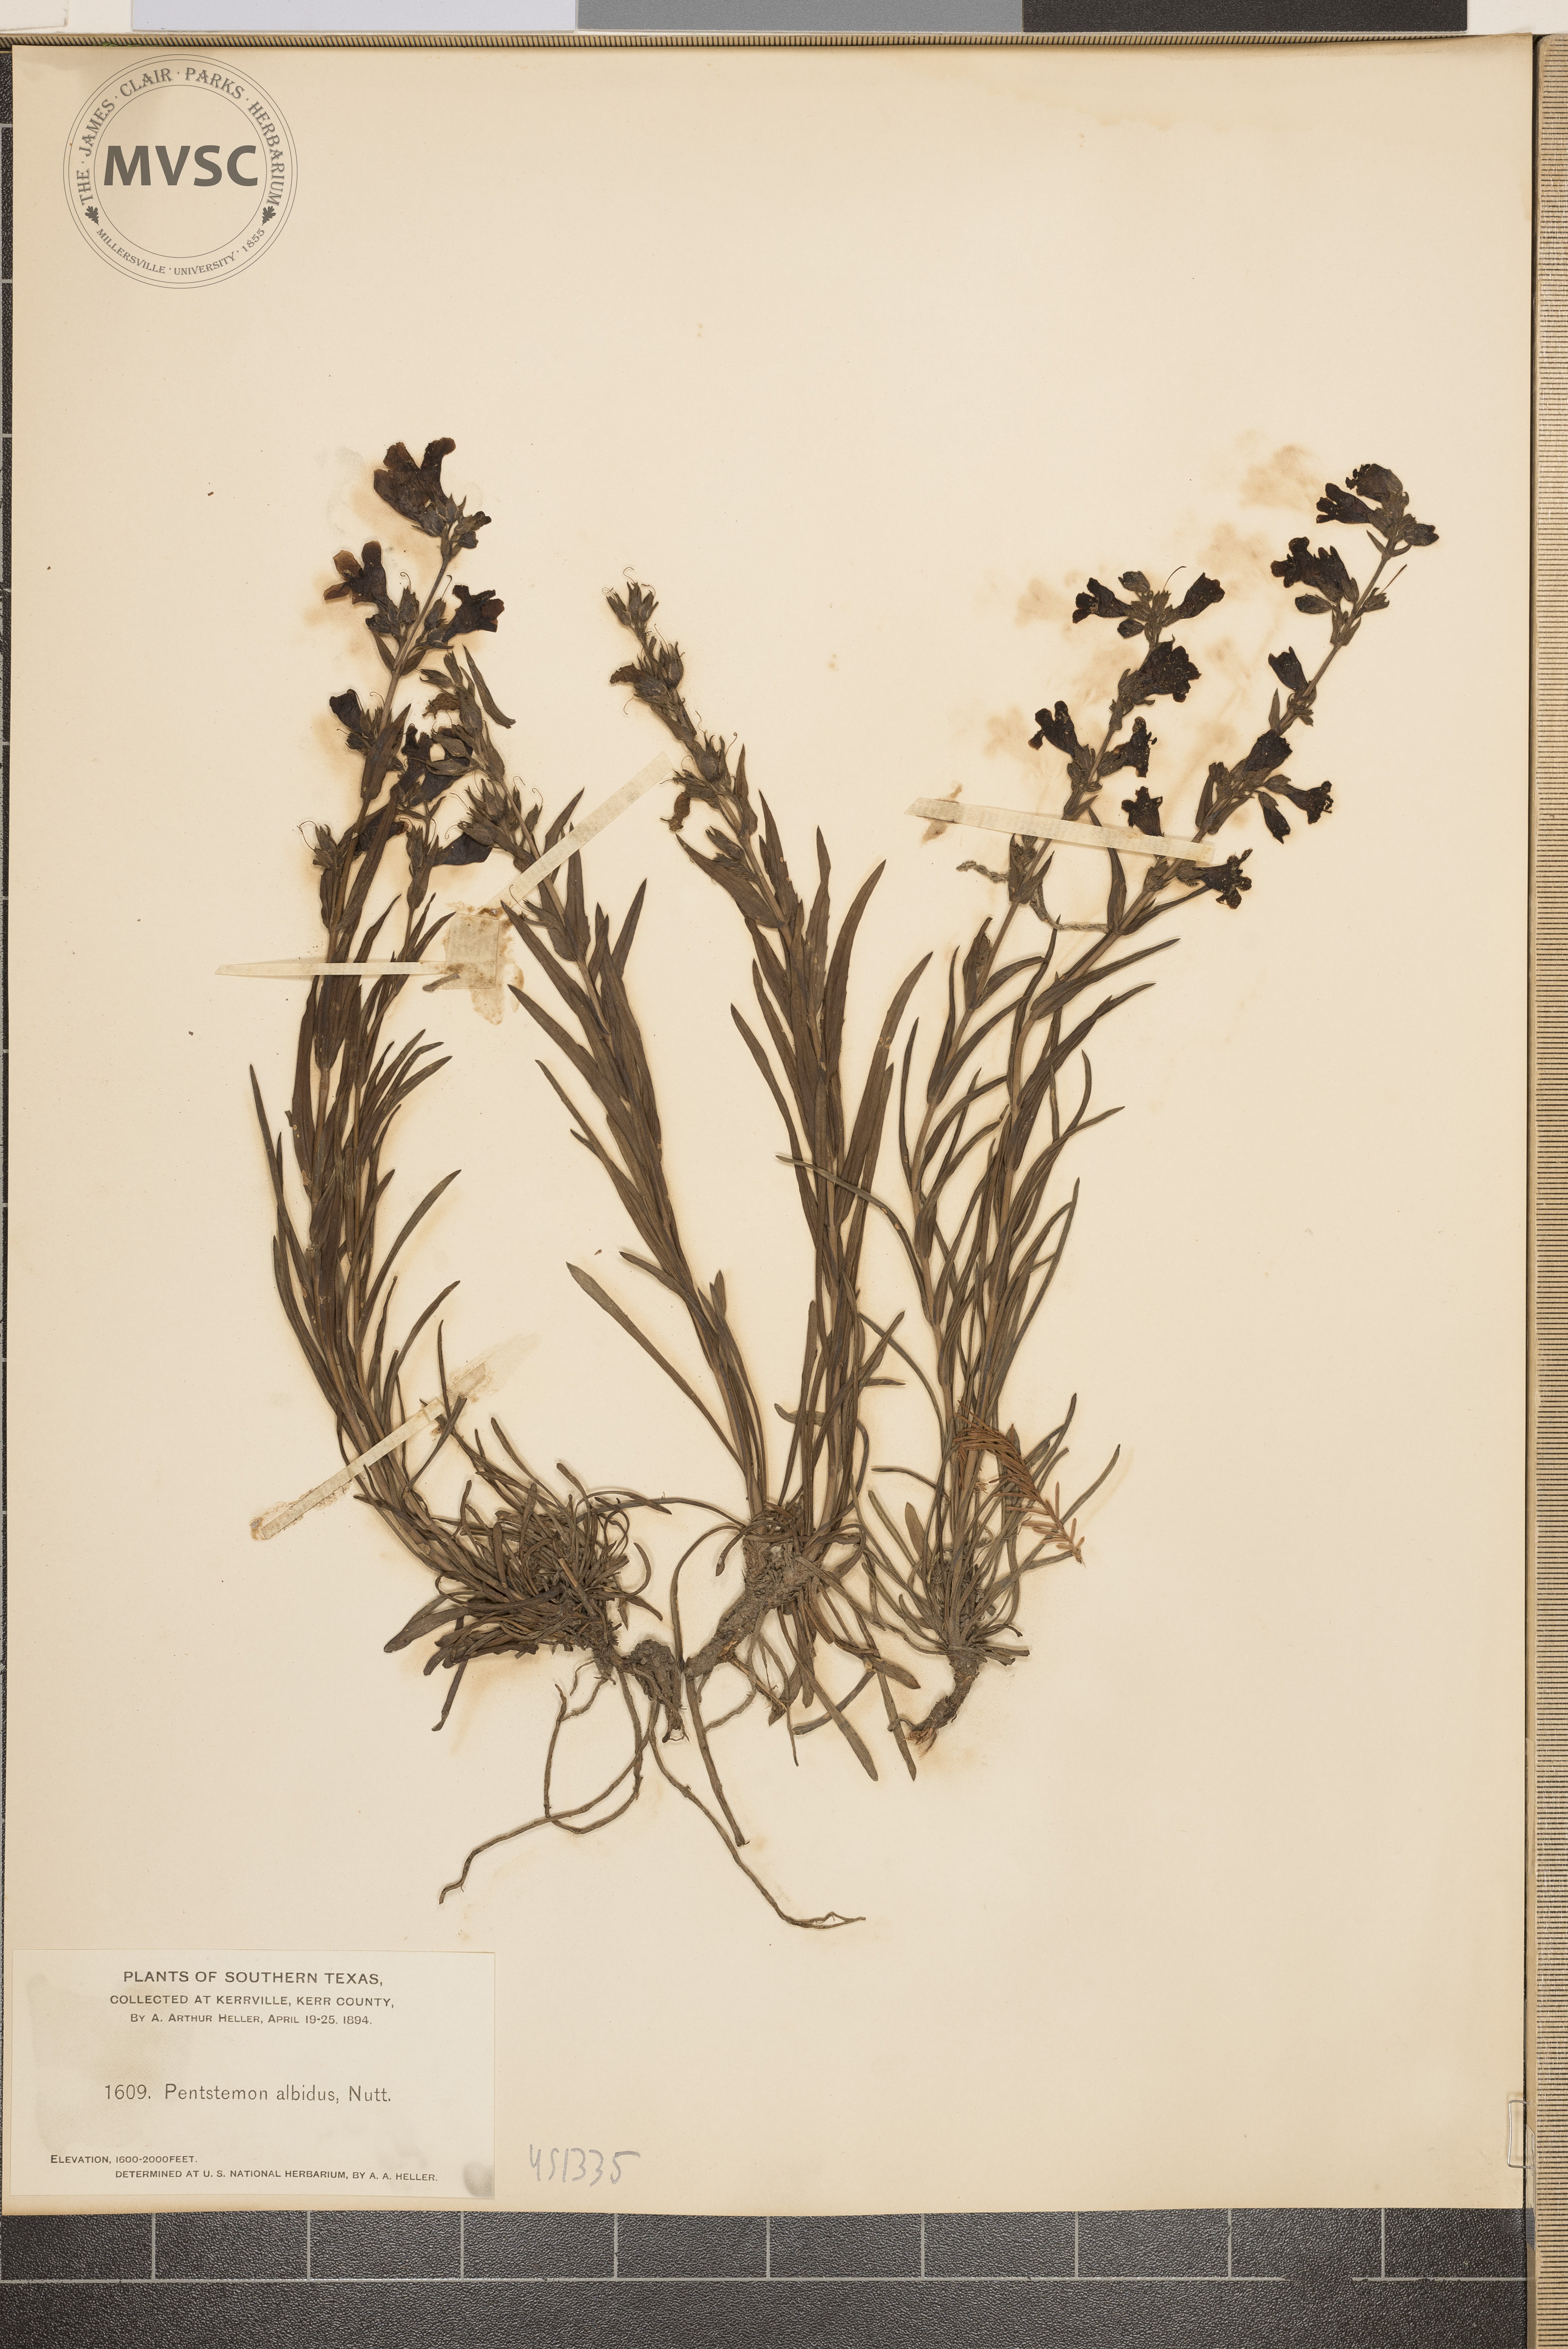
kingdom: Plantae
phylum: Tracheophyta
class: Magnoliopsida
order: Lamiales
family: Plantaginaceae
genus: Penstemon
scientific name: Penstemon albidus
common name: White beardtongue
